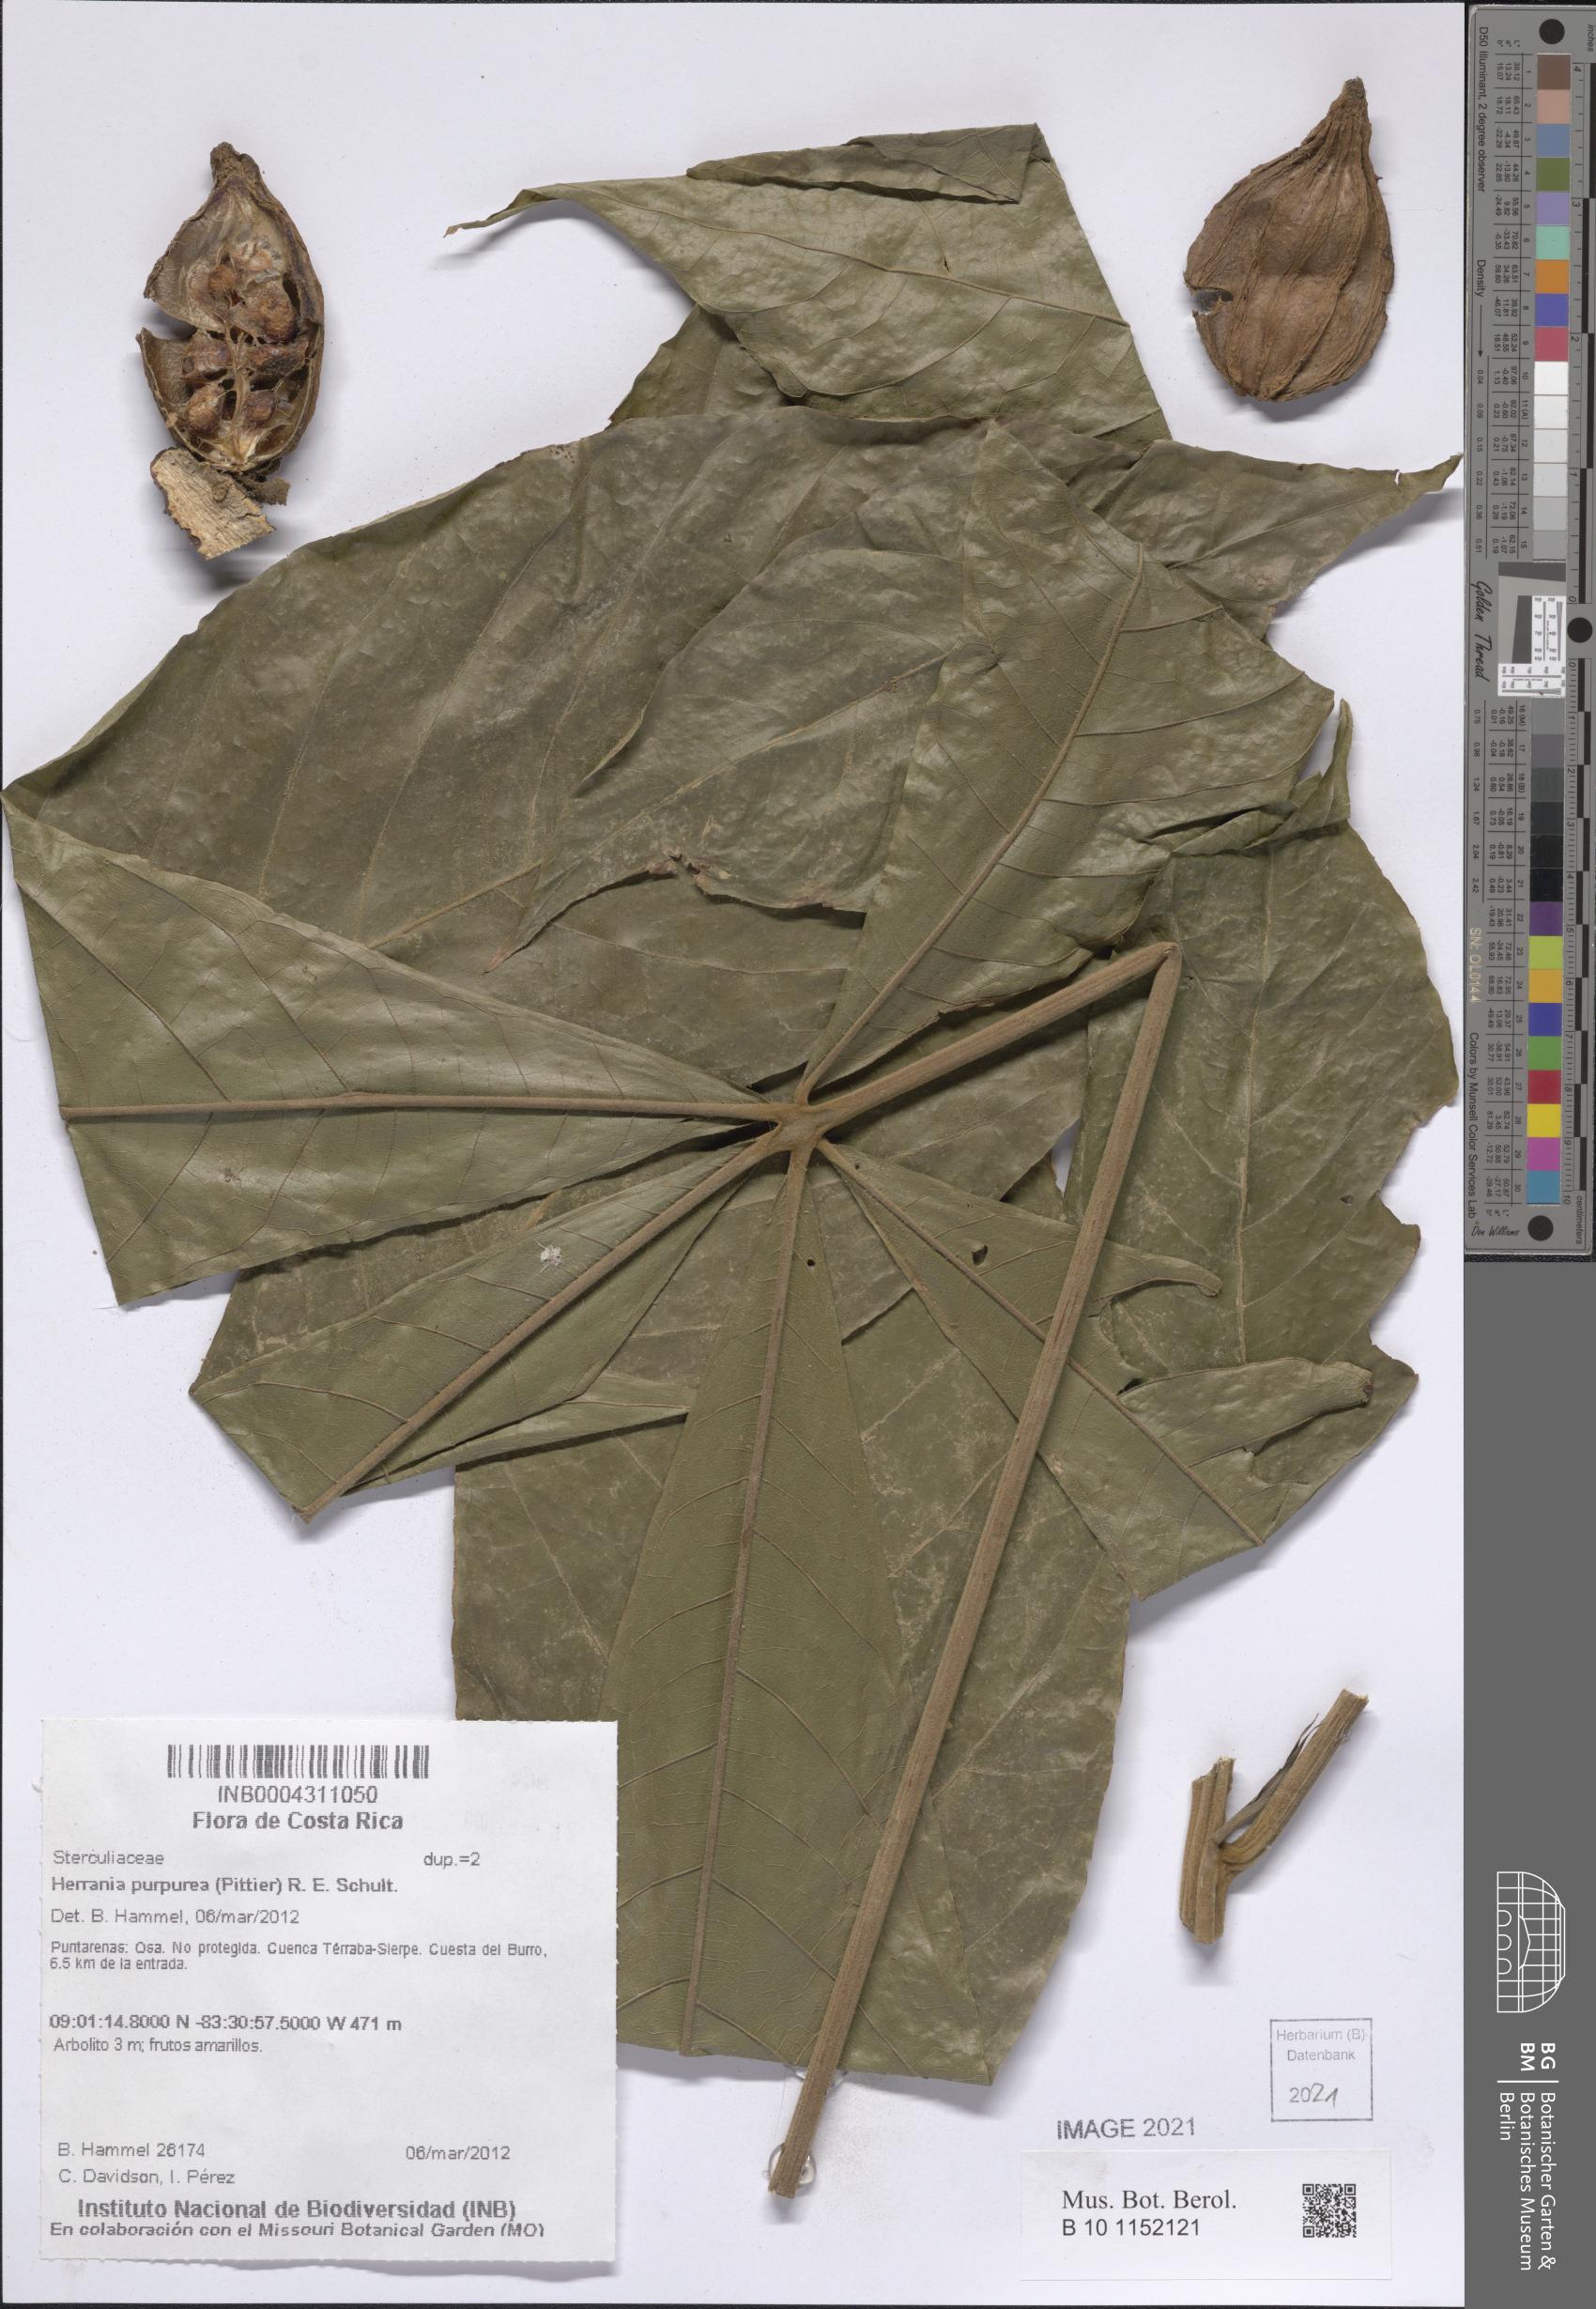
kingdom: Plantae
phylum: Tracheophyta
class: Magnoliopsida
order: Malvales
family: Malvaceae
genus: Herrania
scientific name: Herrania purpurea
